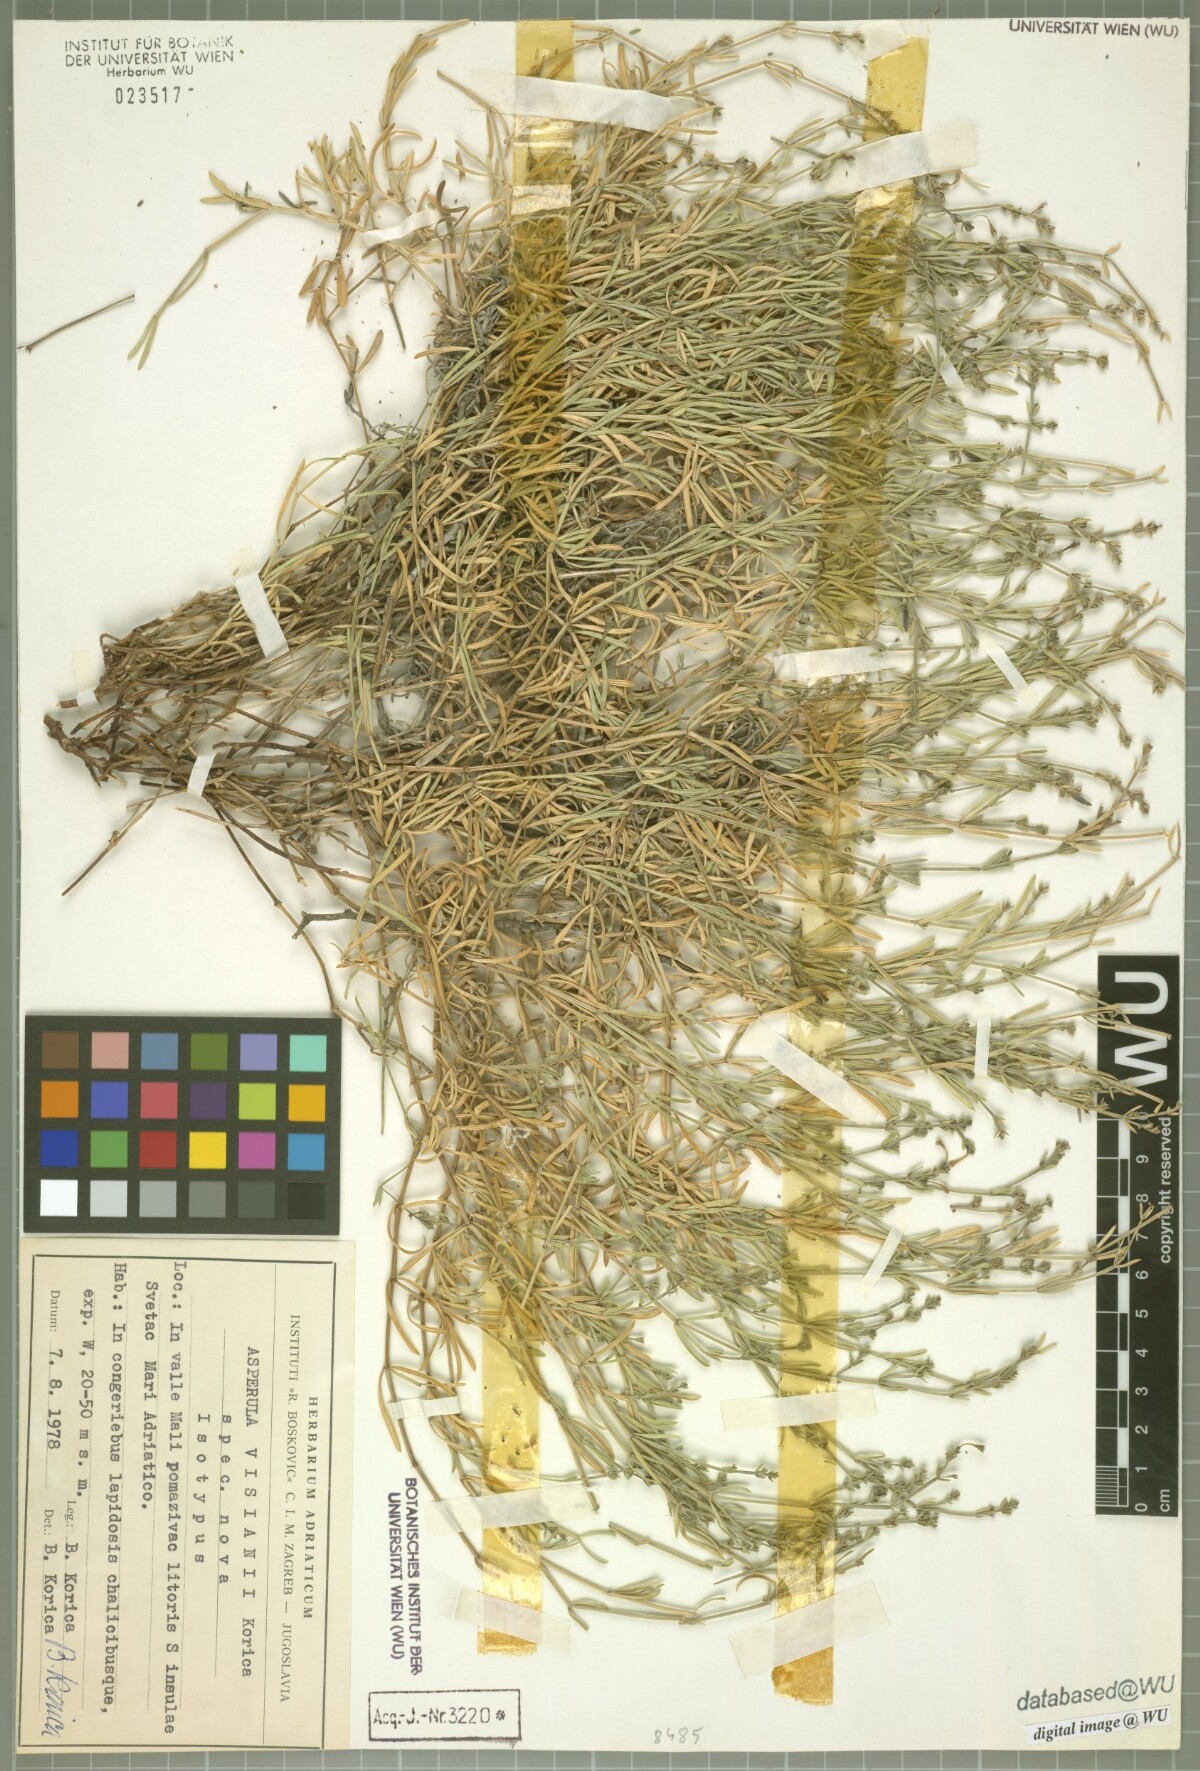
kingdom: Plantae
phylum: Tracheophyta
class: Magnoliopsida
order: Gentianales
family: Rubiaceae
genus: Cynanchica
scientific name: Cynanchica visianii
